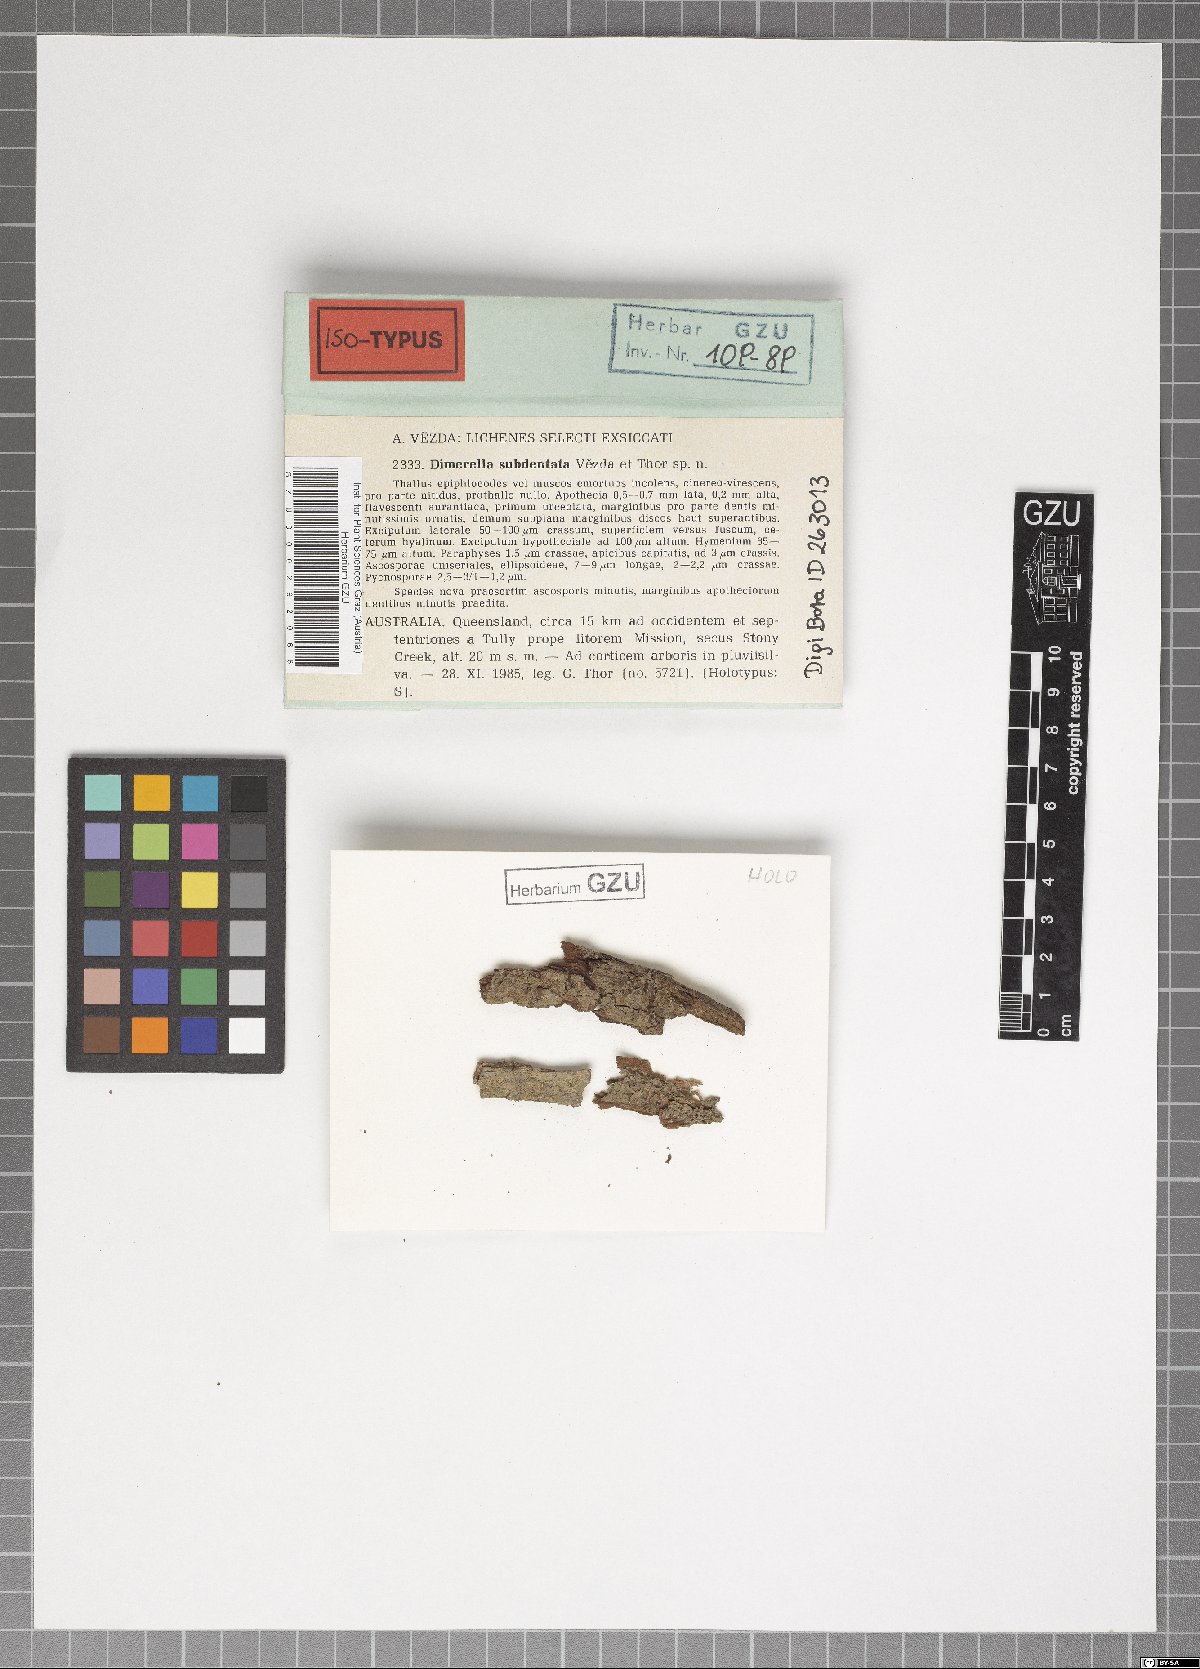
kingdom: Fungi
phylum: Ascomycota
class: Lecanoromycetes
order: Ostropales
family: Coenogoniaceae
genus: Coenogonium
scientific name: Coenogonium subdentatum
